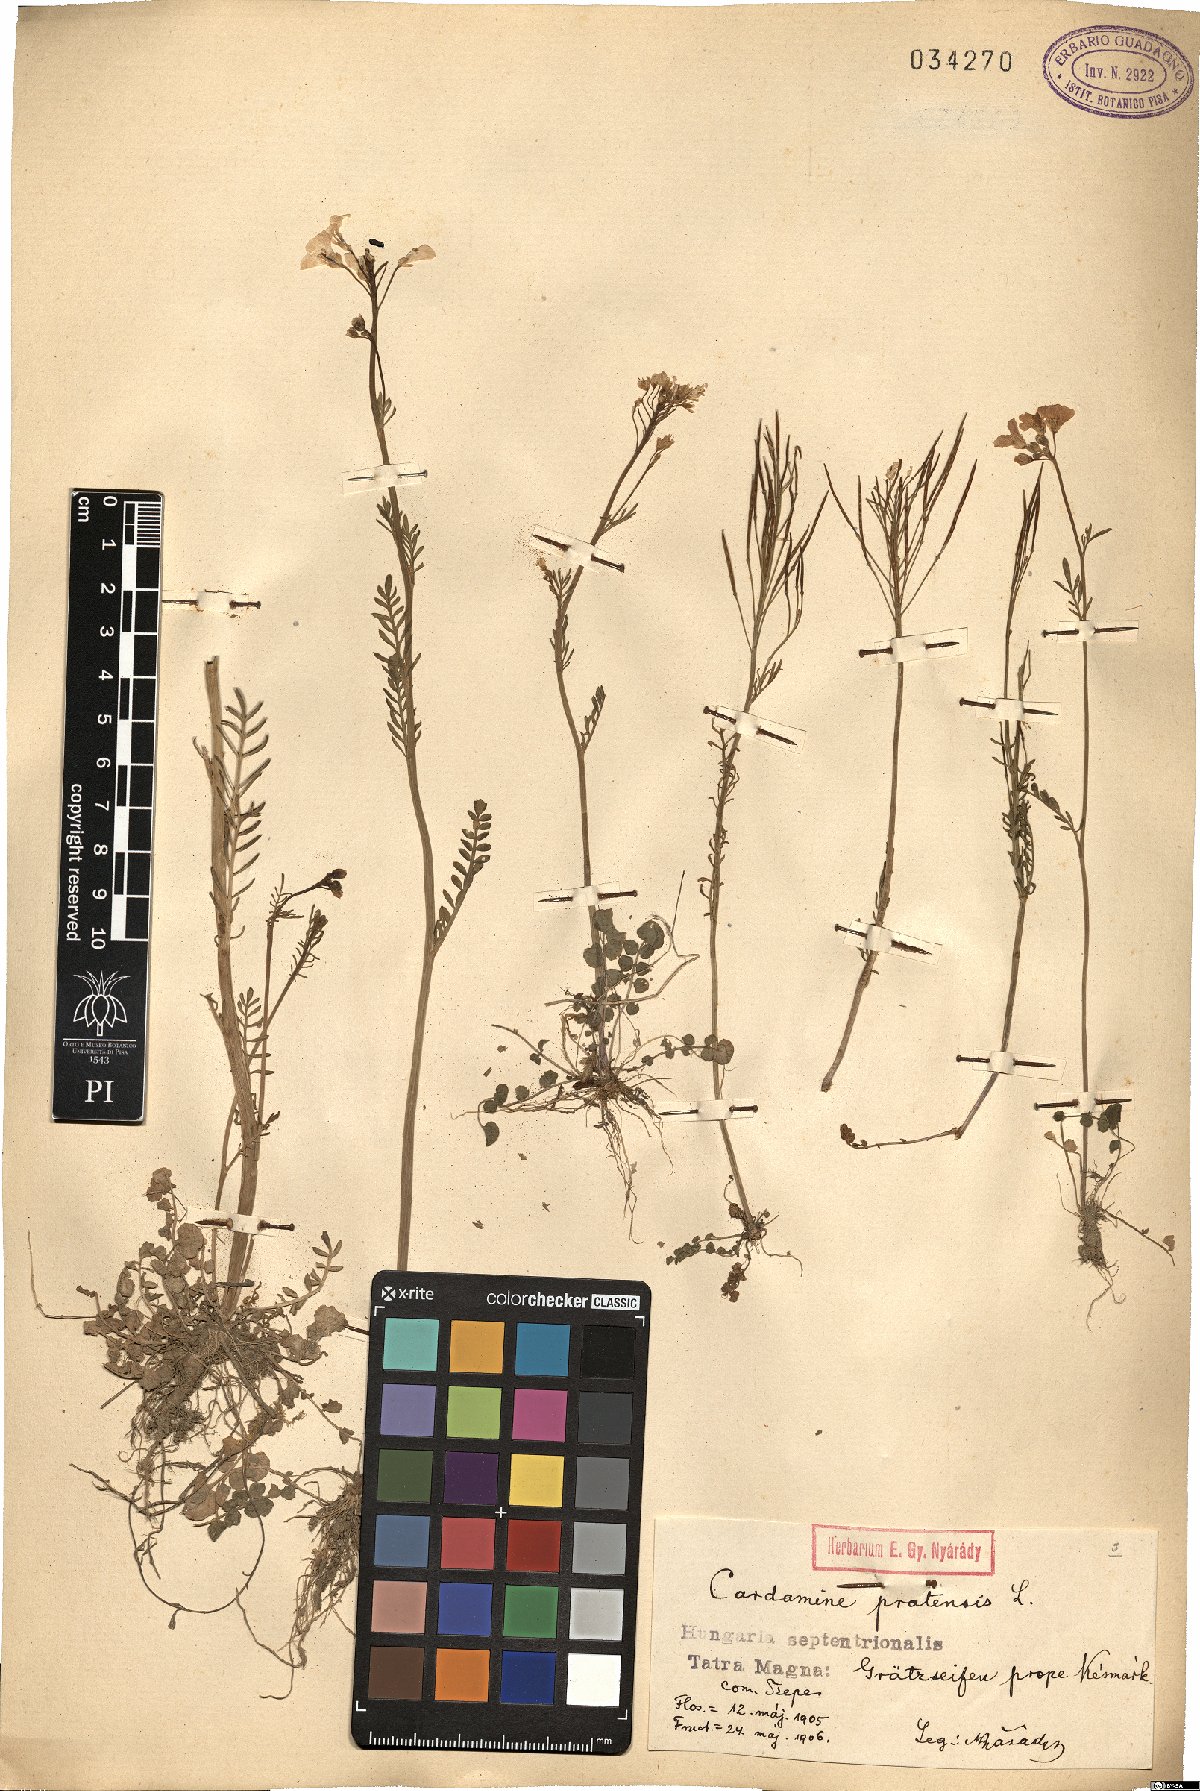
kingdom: Plantae
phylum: Tracheophyta
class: Magnoliopsida
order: Brassicales
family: Brassicaceae
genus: Cardamine
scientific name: Cardamine pratensis
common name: Cuckoo flower
